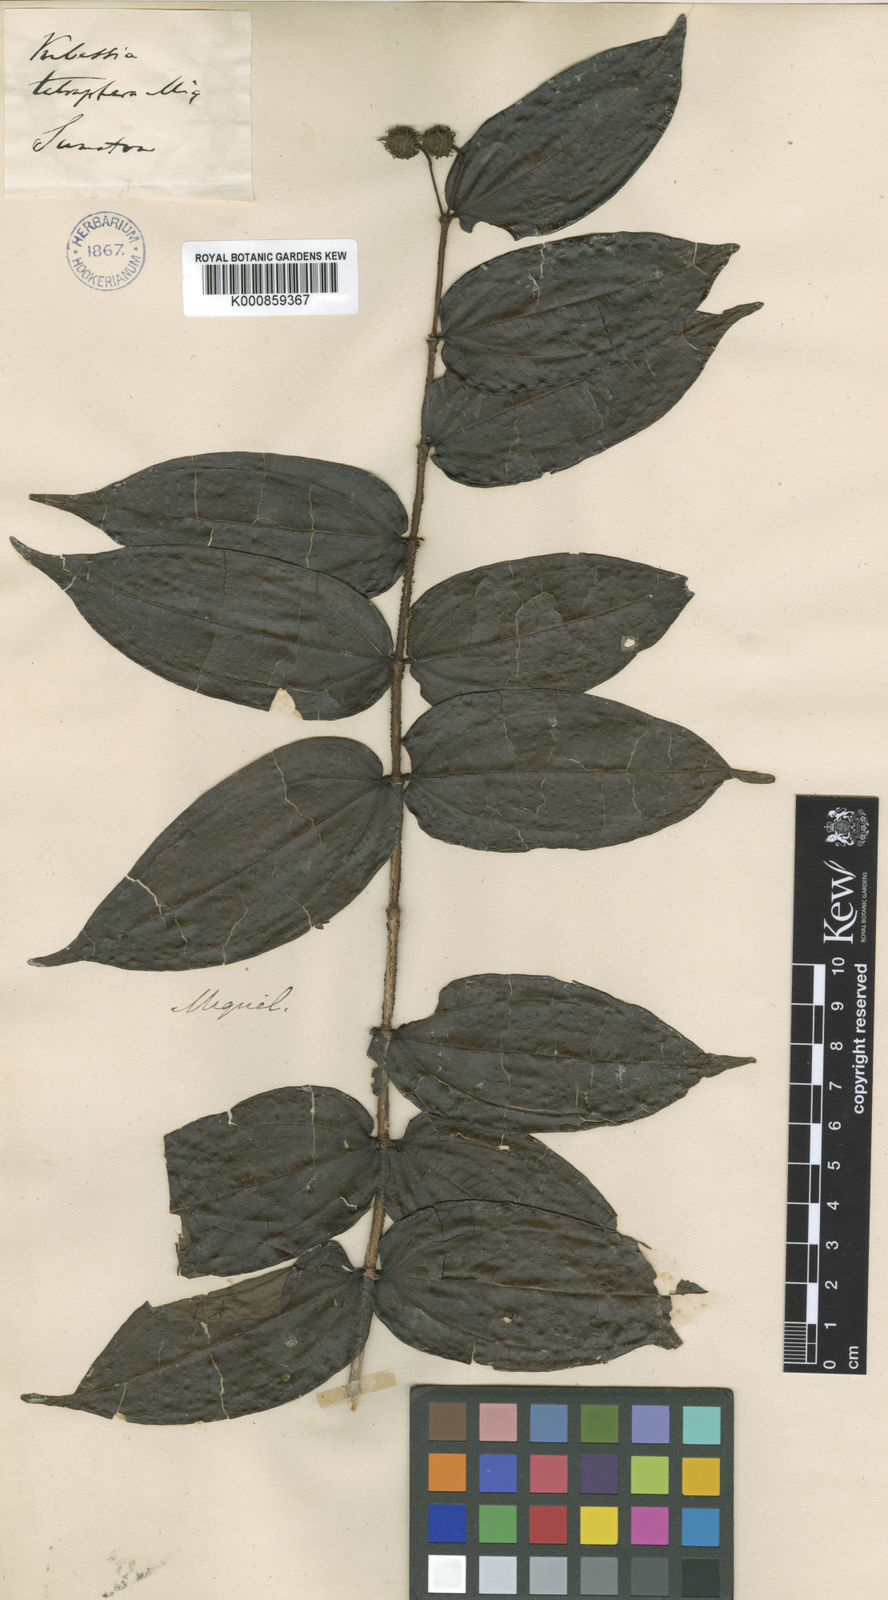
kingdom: Plantae
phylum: Tracheophyta
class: Magnoliopsida
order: Myrtales
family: Melastomataceae
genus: Pternandra
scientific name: Pternandra azurea
